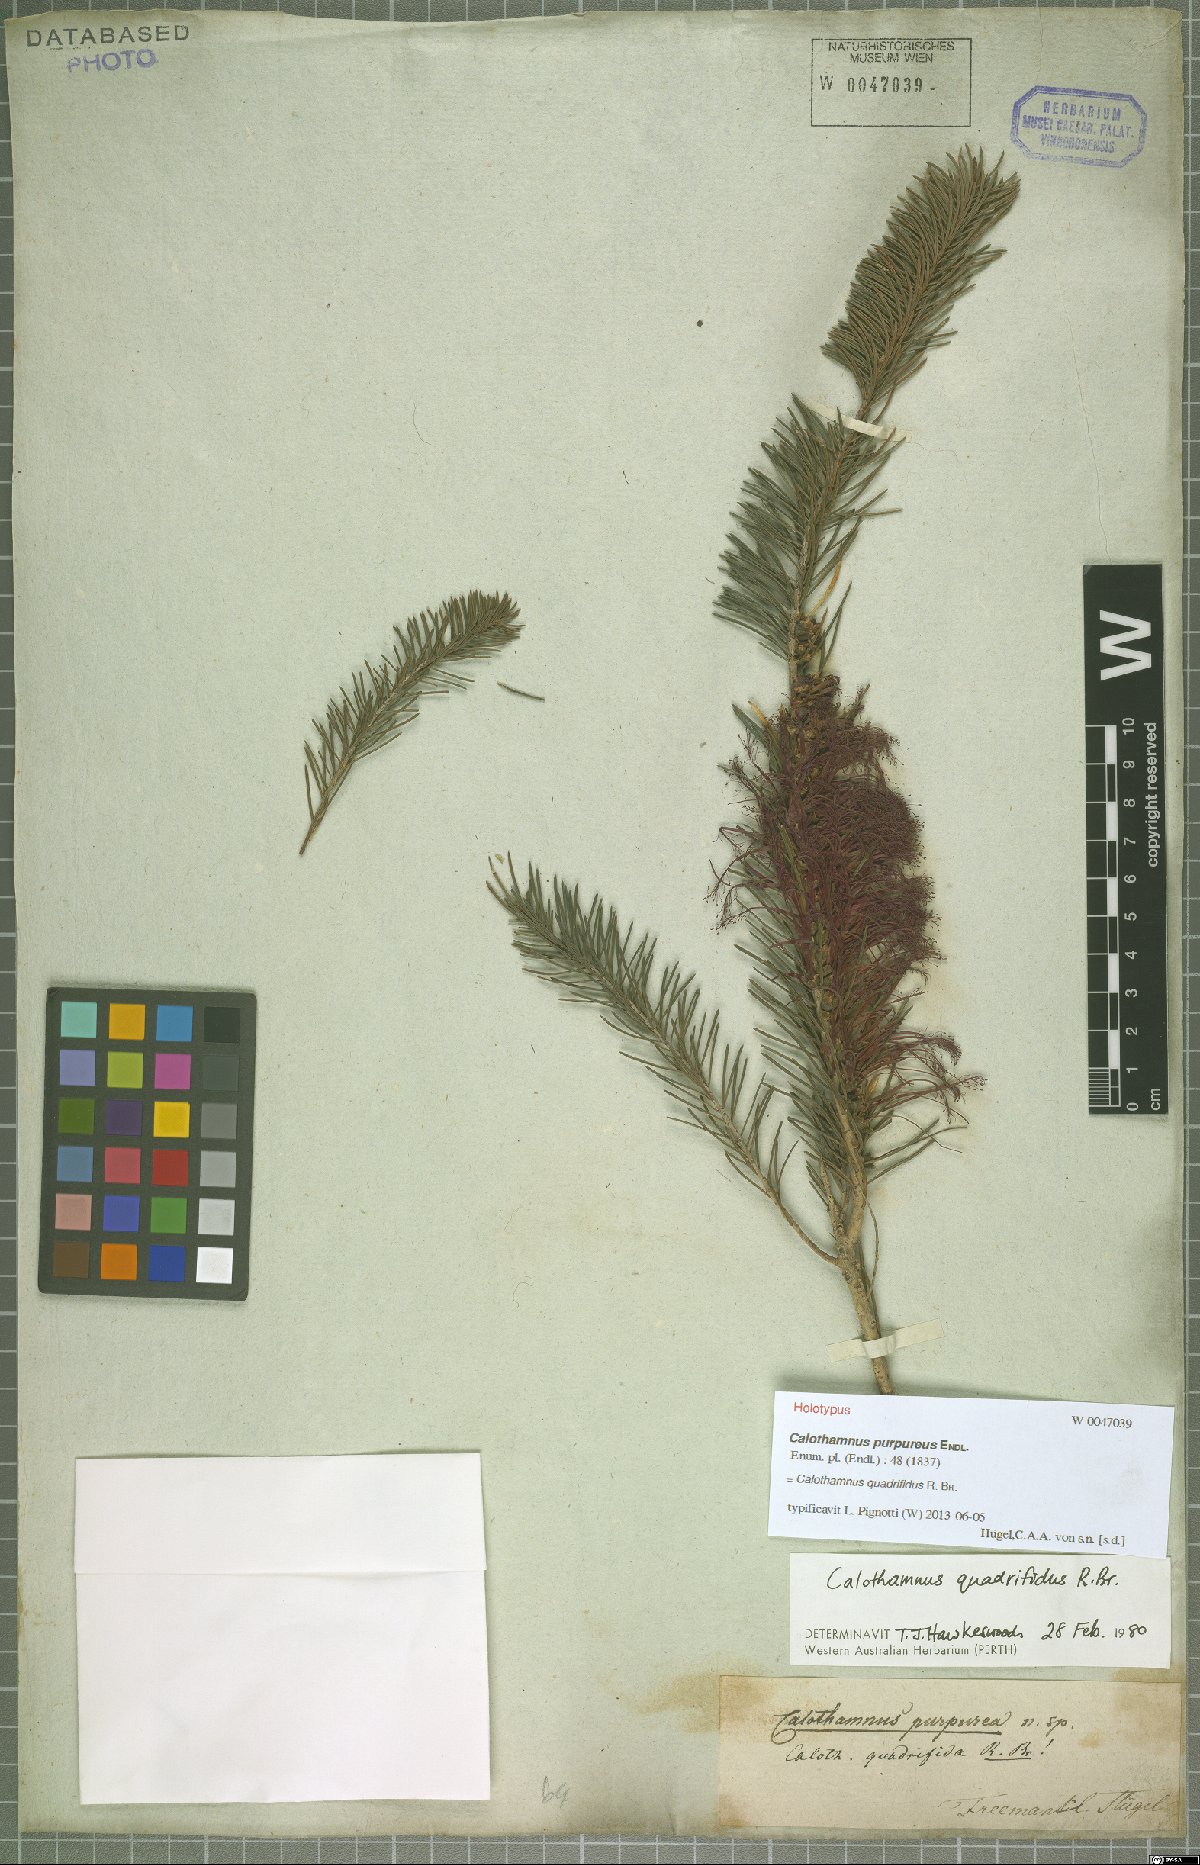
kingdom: Plantae
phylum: Tracheophyta
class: Magnoliopsida
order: Myrtales
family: Myrtaceae
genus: Melaleuca
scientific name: Melaleuca quadrifida
